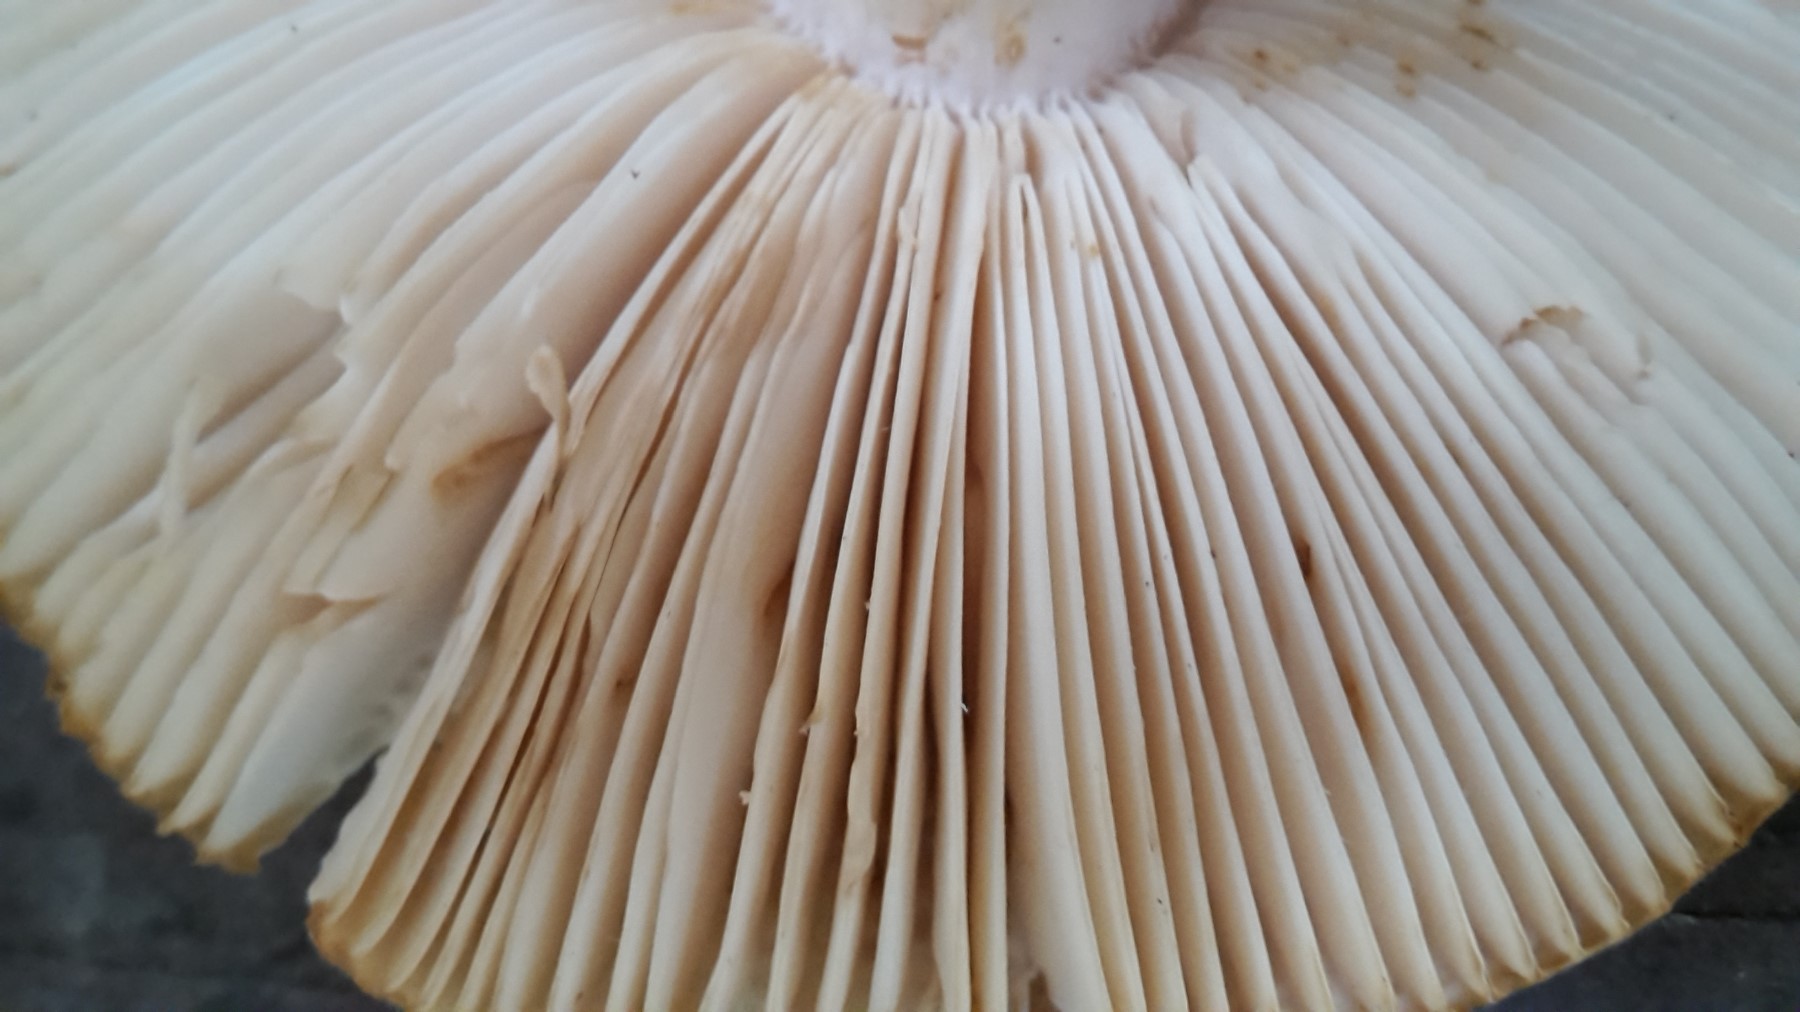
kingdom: Fungi
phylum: Basidiomycota
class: Agaricomycetes
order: Russulales
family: Russulaceae
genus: Russula
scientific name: Russula mustelina
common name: brun skørhat
